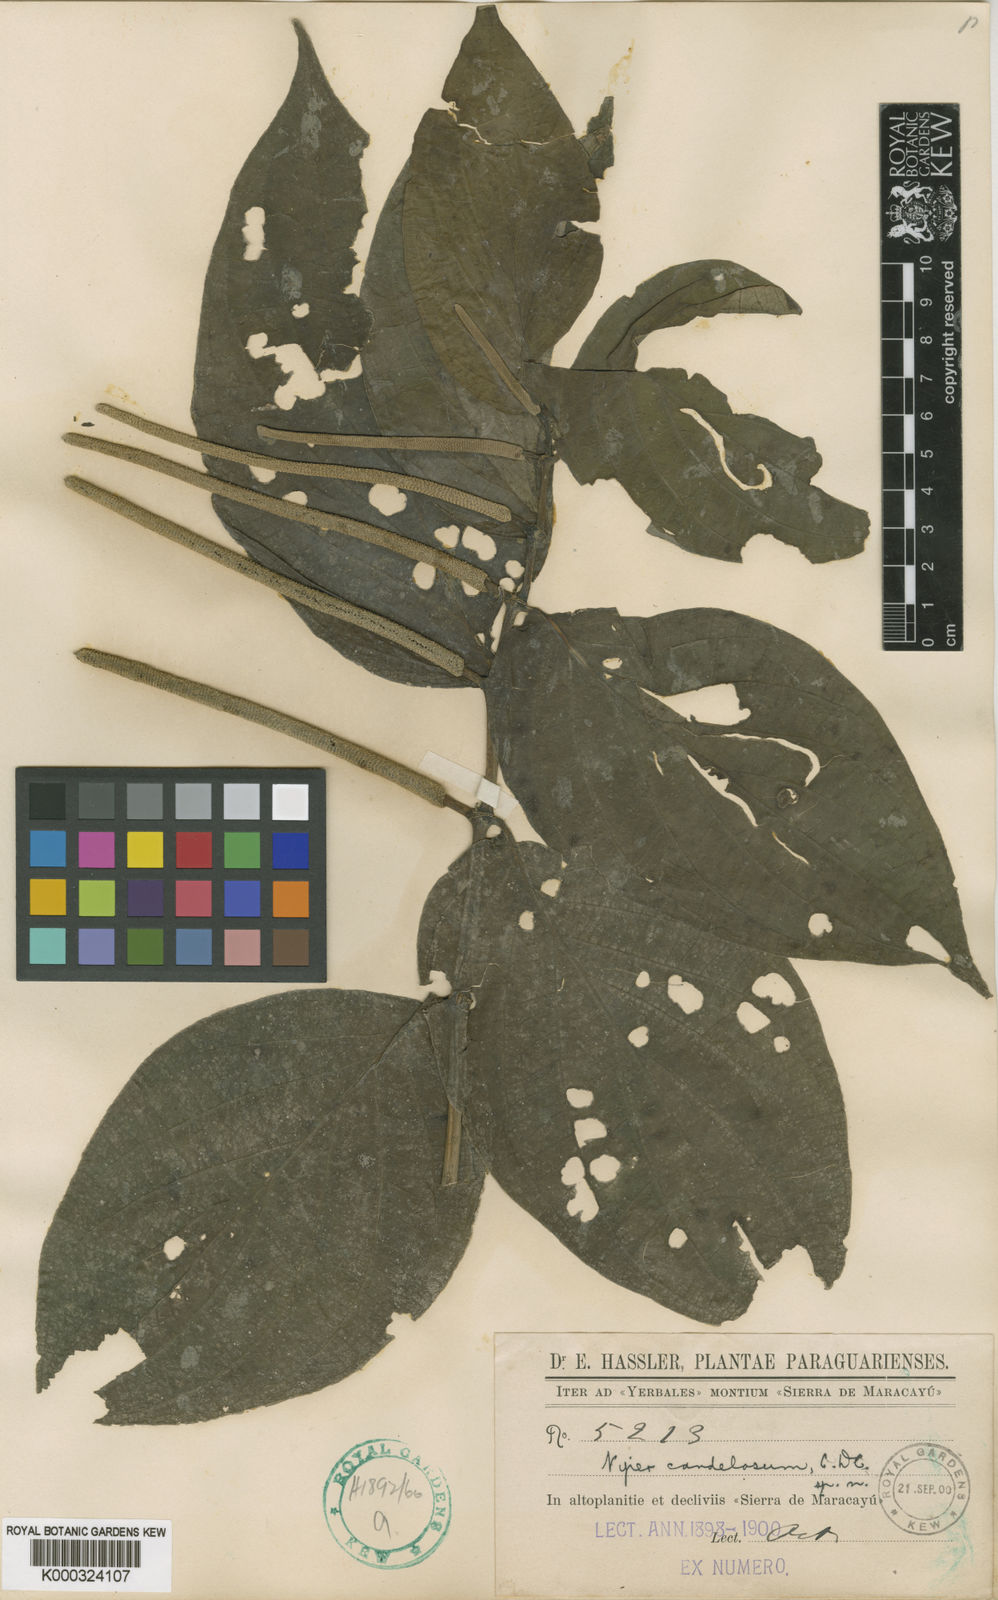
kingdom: Plantae
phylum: Tracheophyta
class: Magnoliopsida
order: Piperales
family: Piperaceae
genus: Piper
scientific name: Piper candelosum
